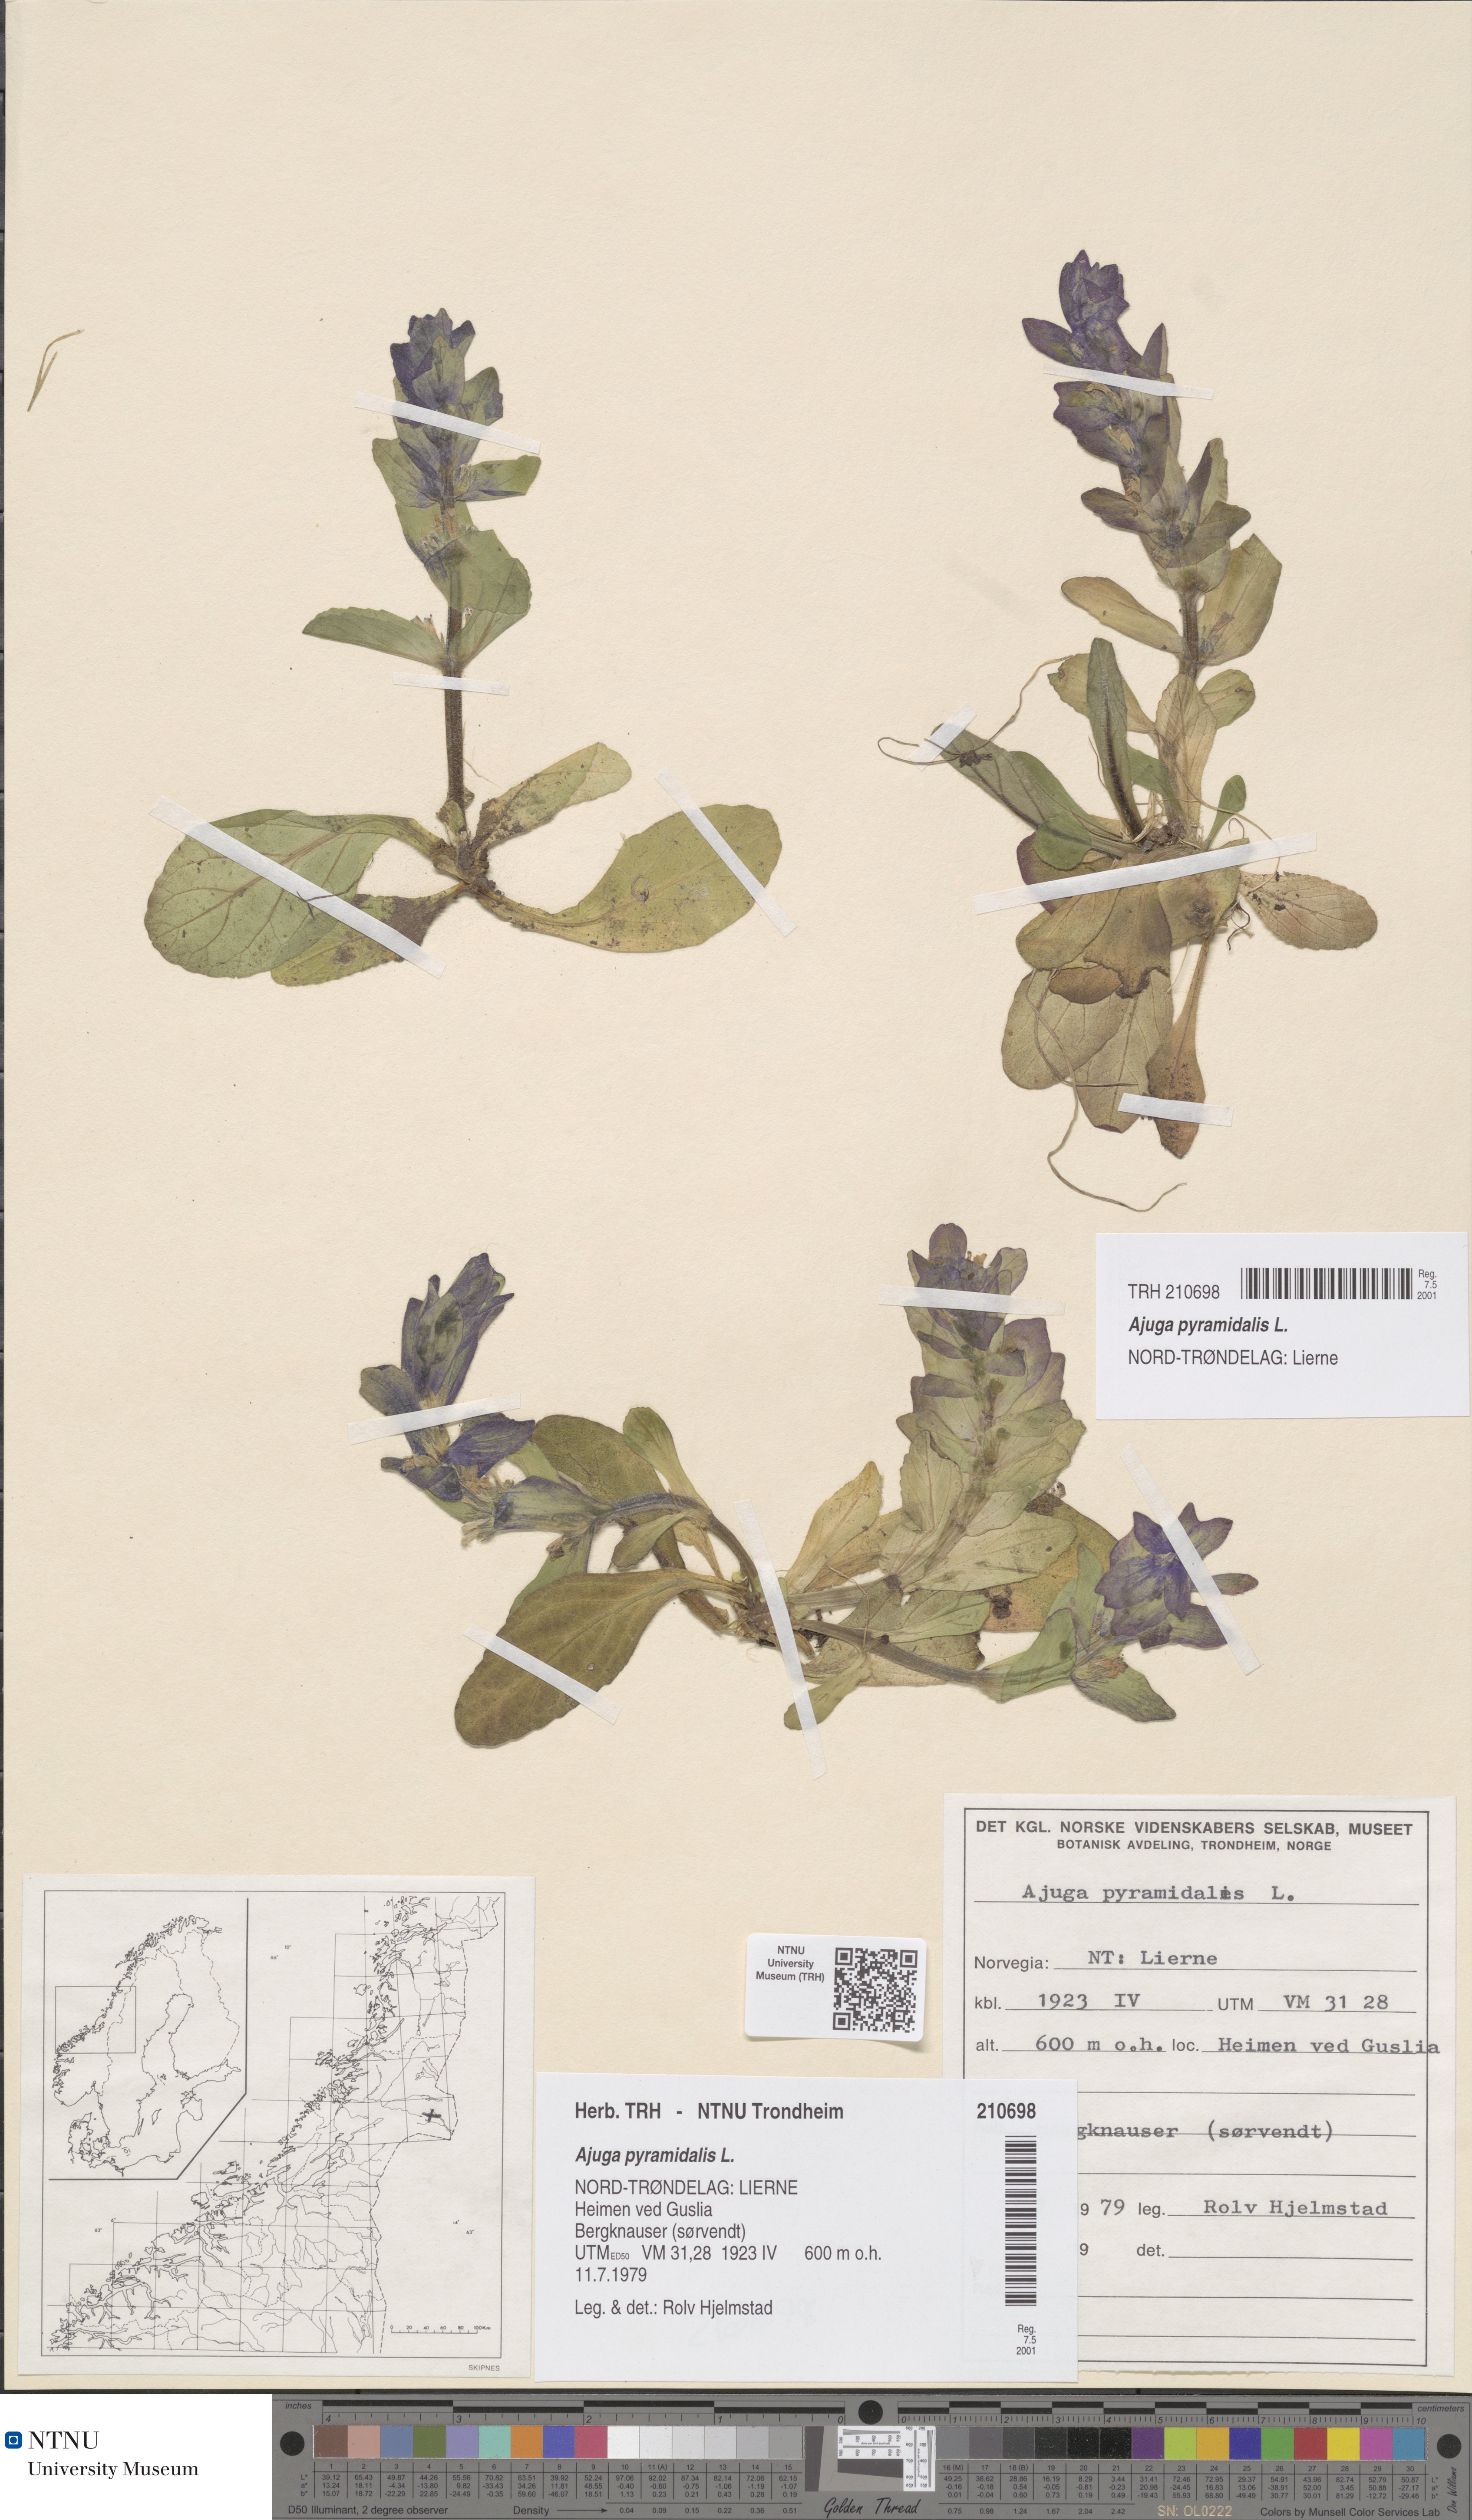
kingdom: Plantae
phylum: Tracheophyta
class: Magnoliopsida
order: Lamiales
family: Lamiaceae
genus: Ajuga
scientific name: Ajuga pyramidalis
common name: Pyramid bugle
